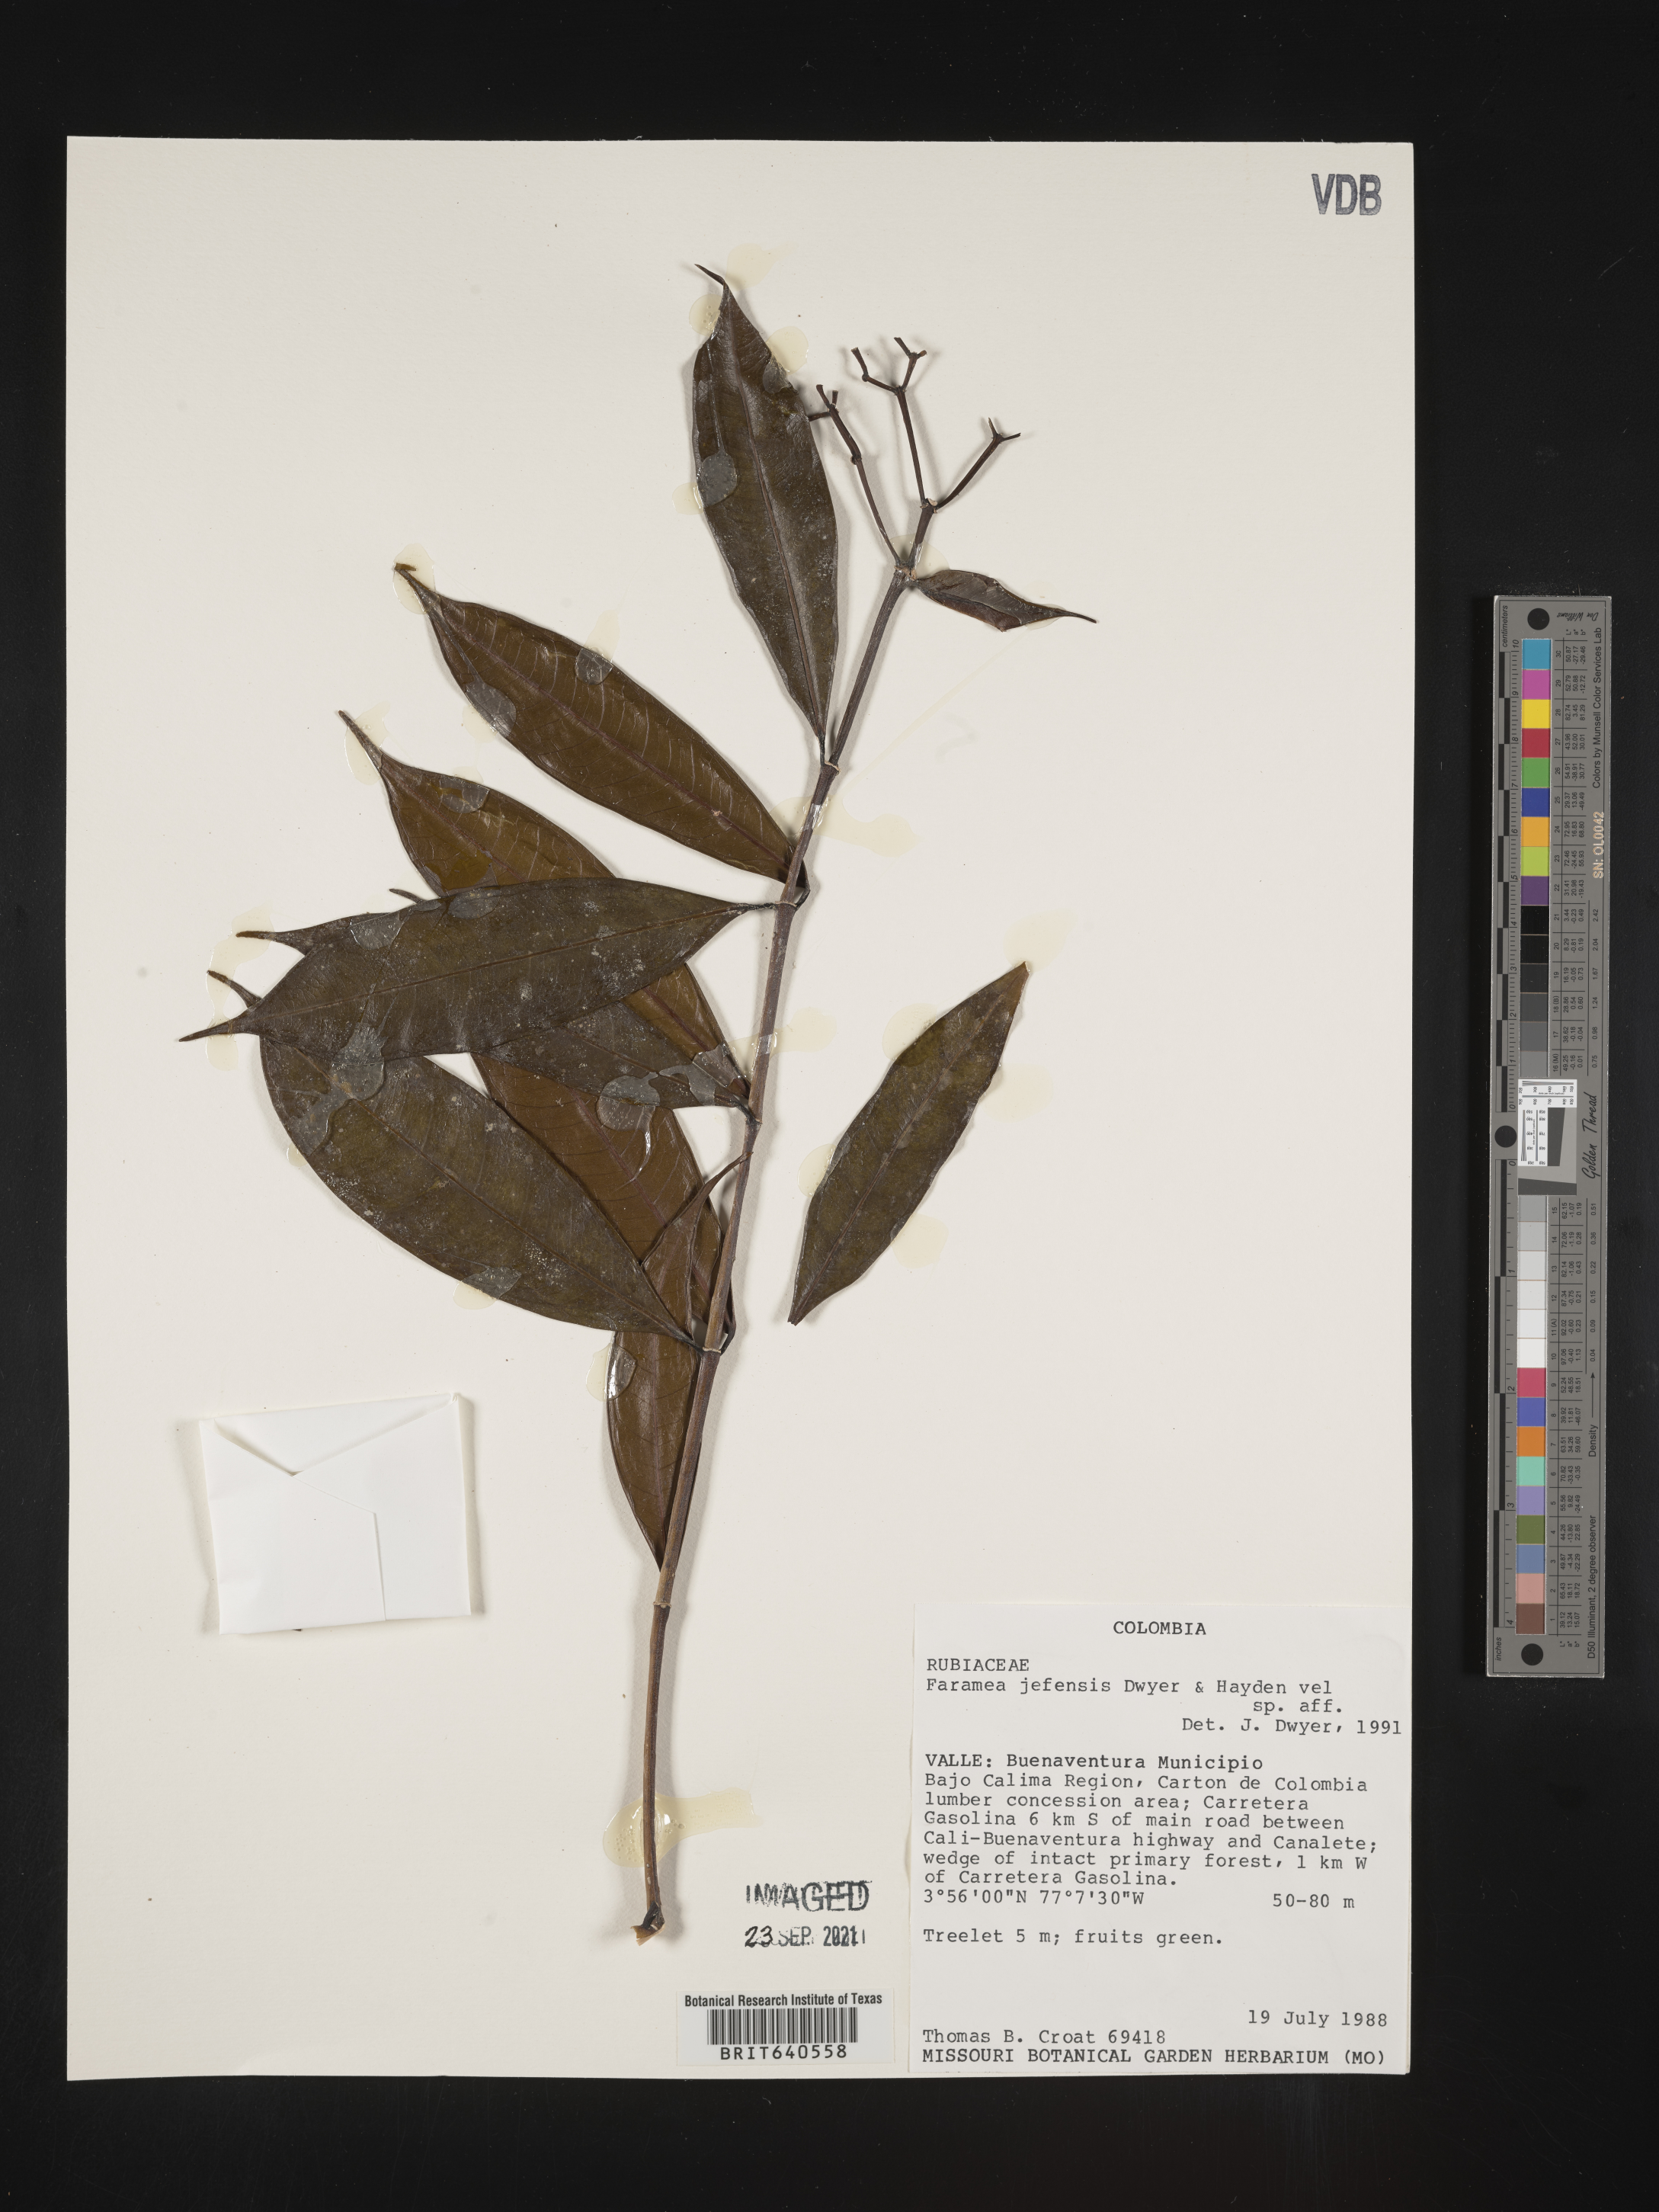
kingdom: Plantae
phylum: Tracheophyta
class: Magnoliopsida
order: Gentianales
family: Rubiaceae
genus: Faramea
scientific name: Faramea
